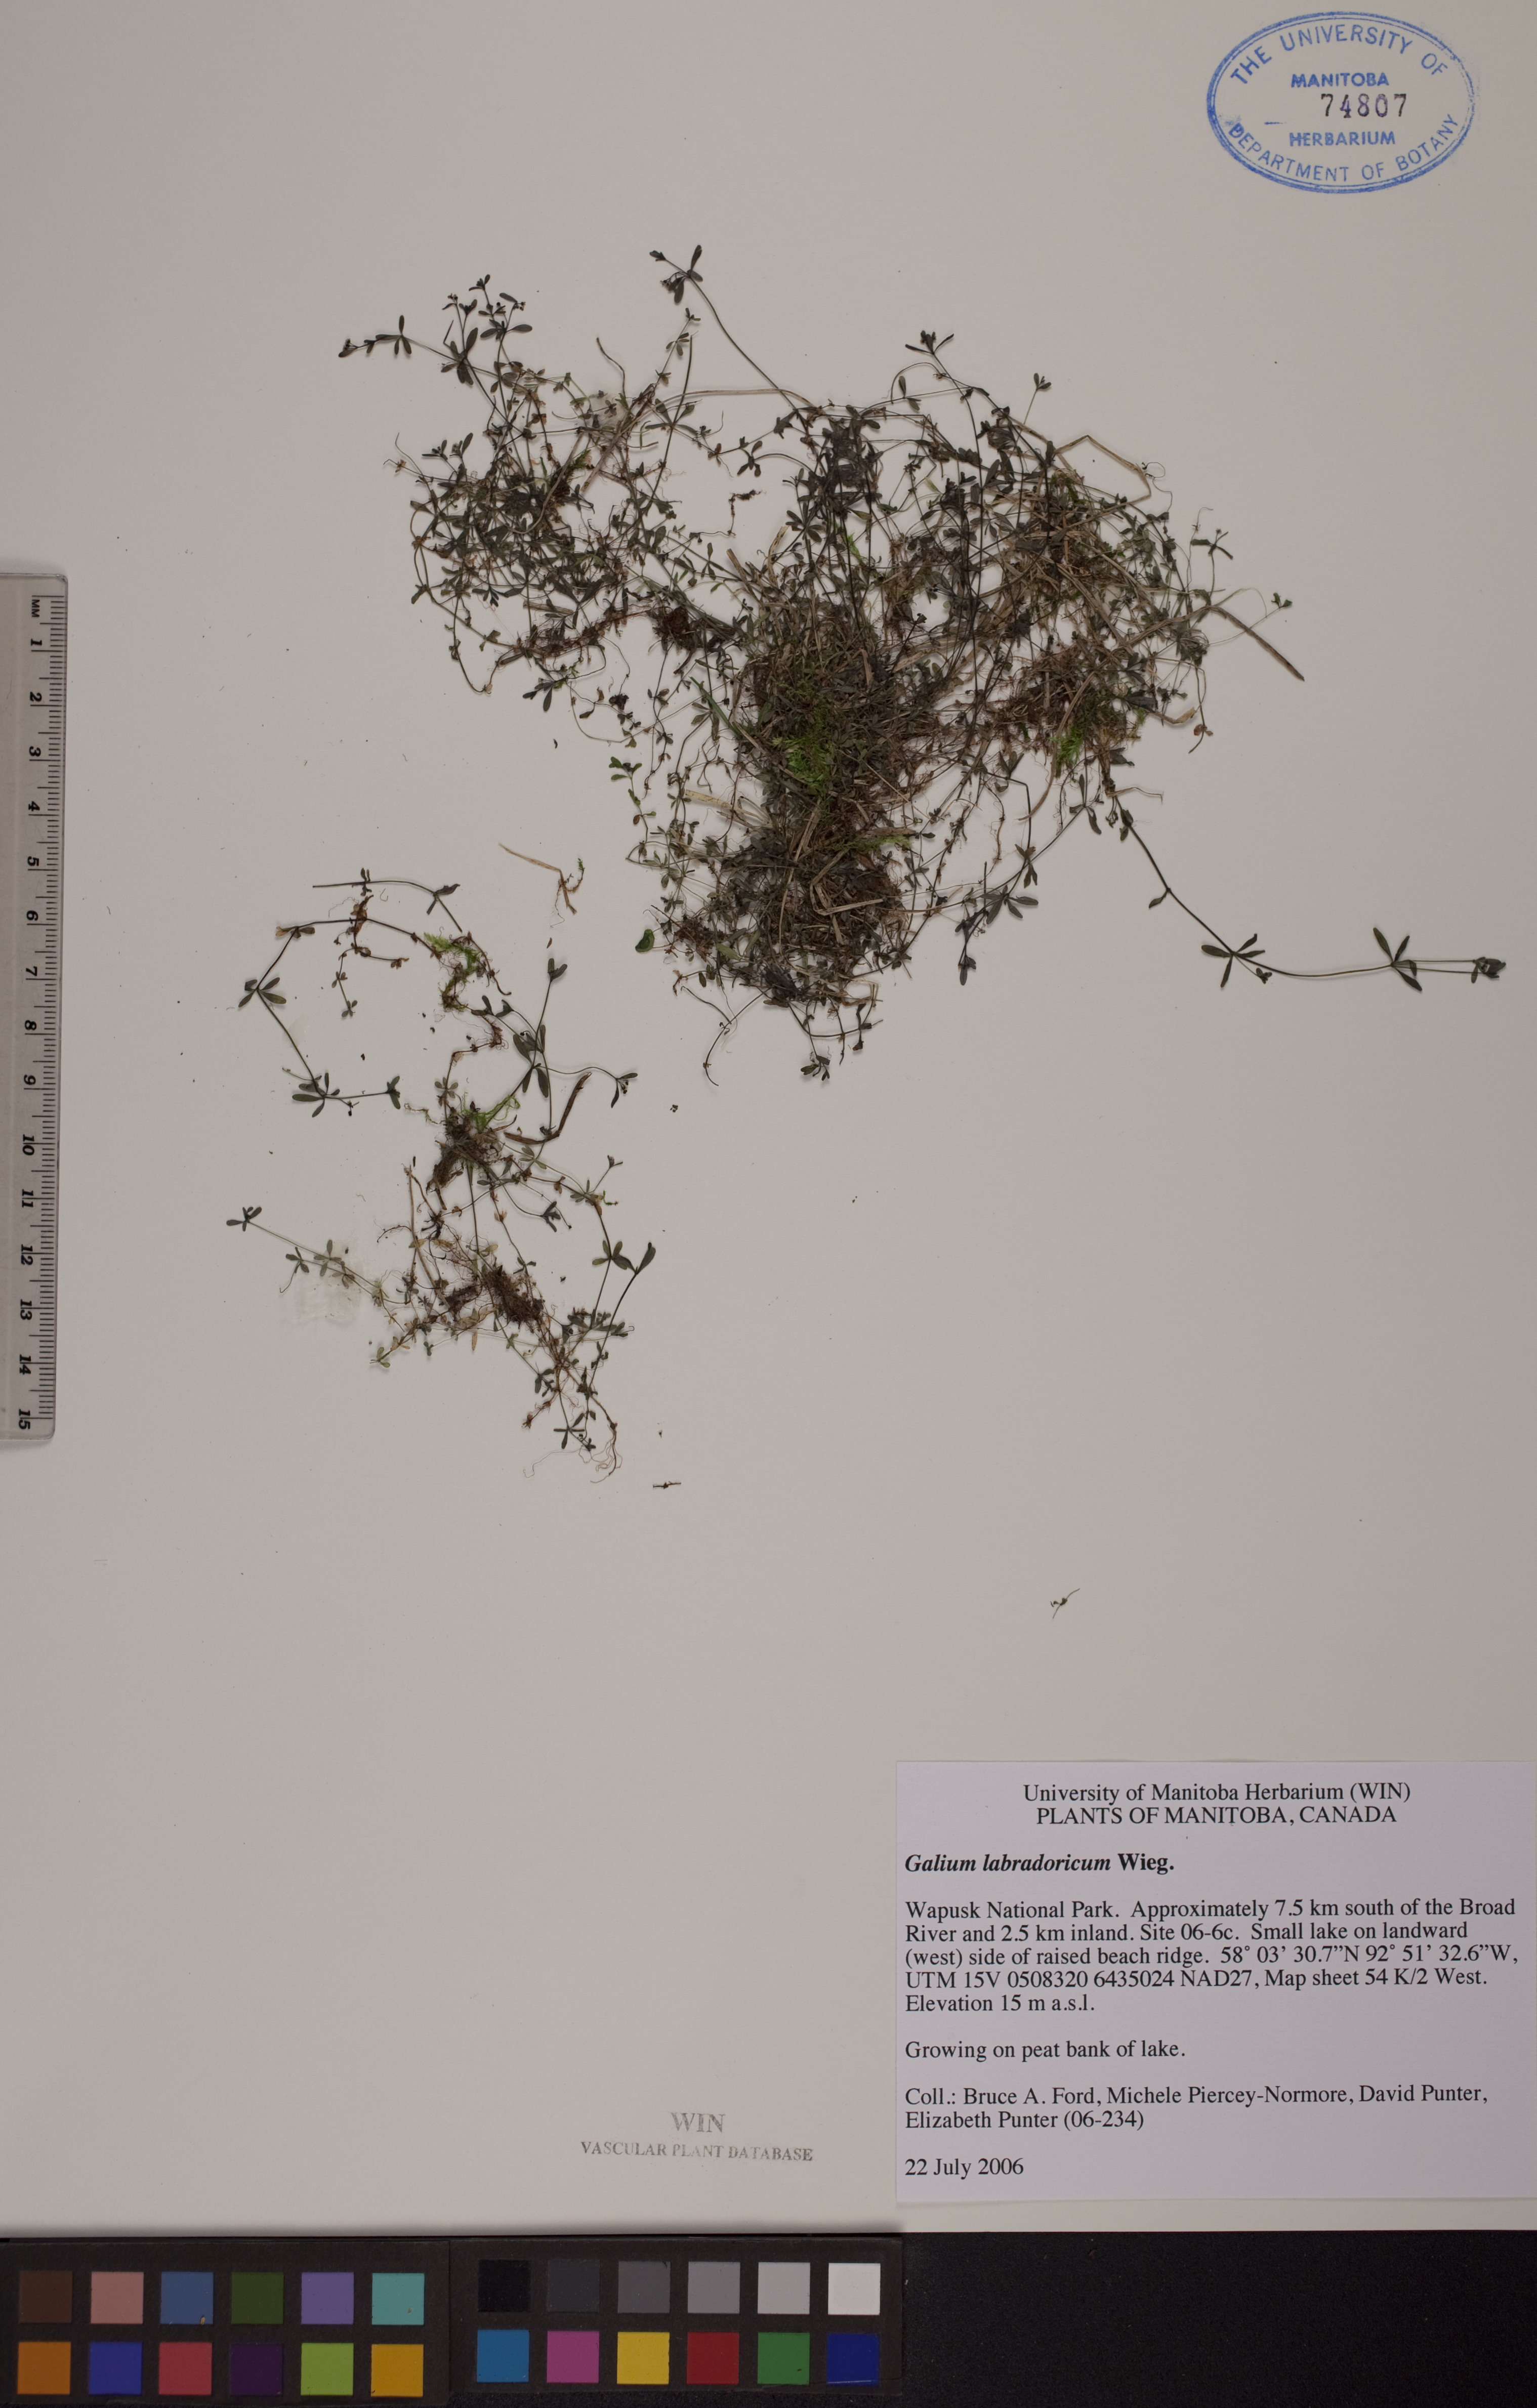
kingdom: Plantae
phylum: Tracheophyta
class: Magnoliopsida
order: Gentianales
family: Rubiaceae
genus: Galium
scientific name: Galium domingense
